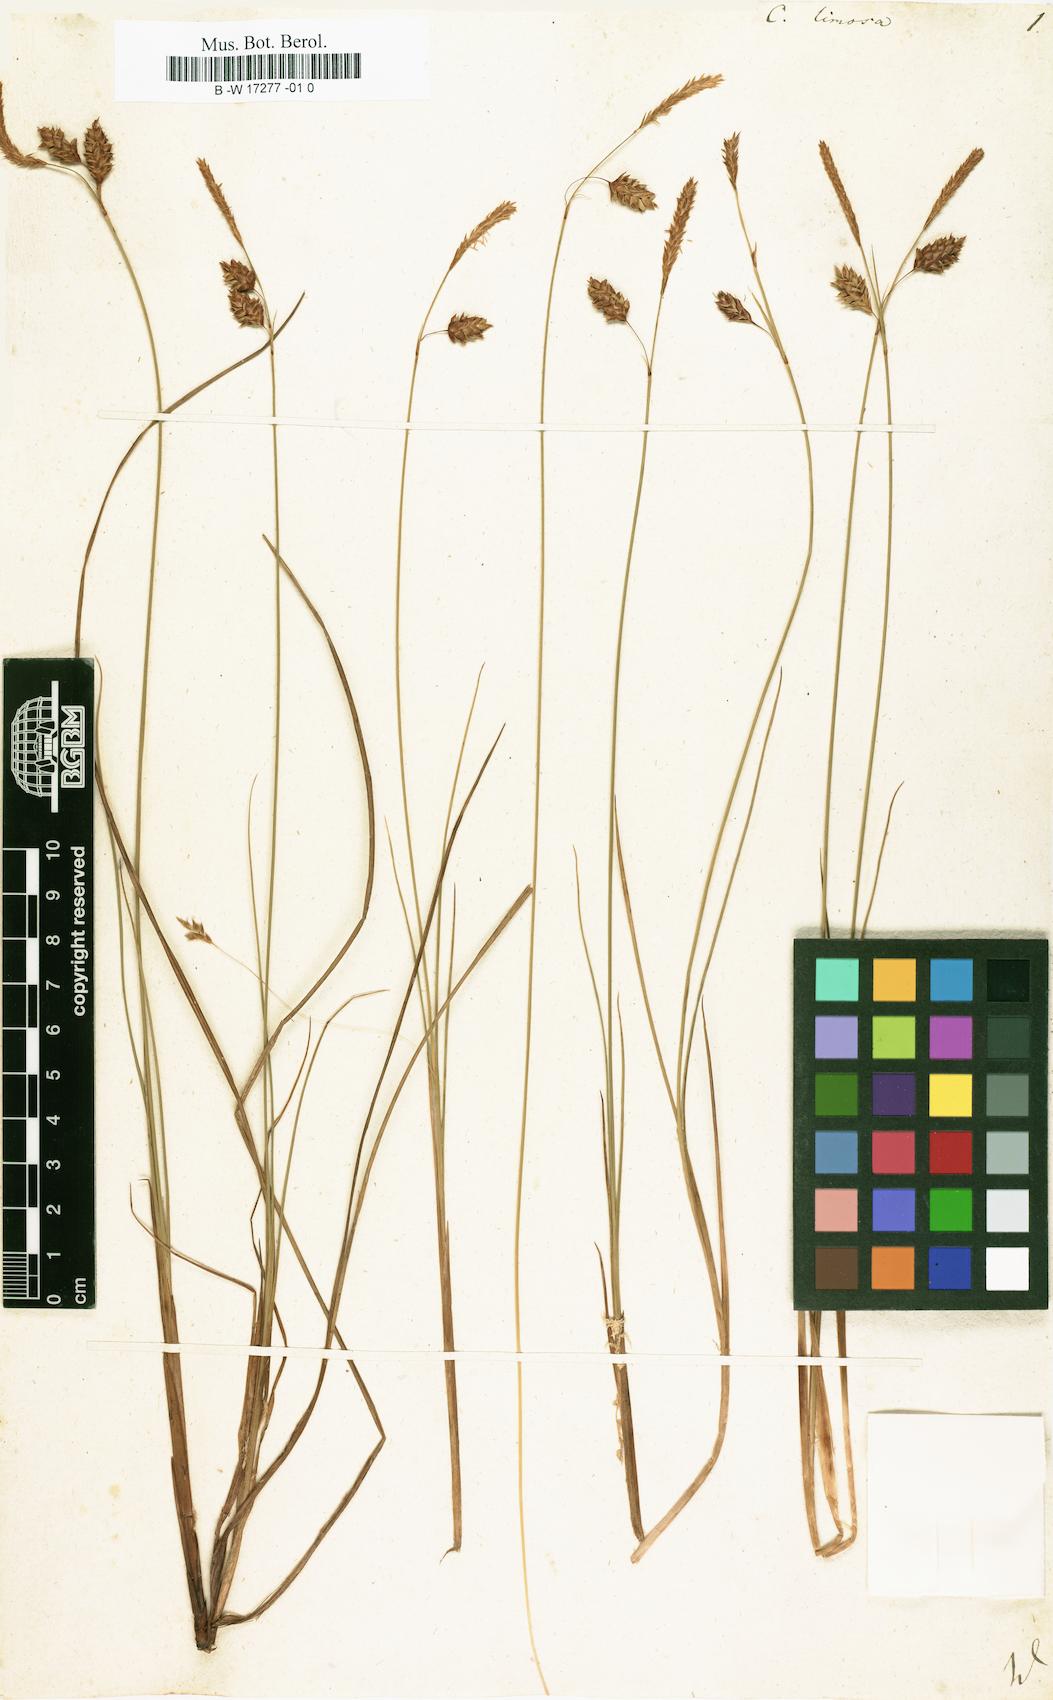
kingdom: Plantae
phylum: Tracheophyta
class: Liliopsida
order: Poales
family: Cyperaceae
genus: Carex
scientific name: Carex limosa
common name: Bog sedge
